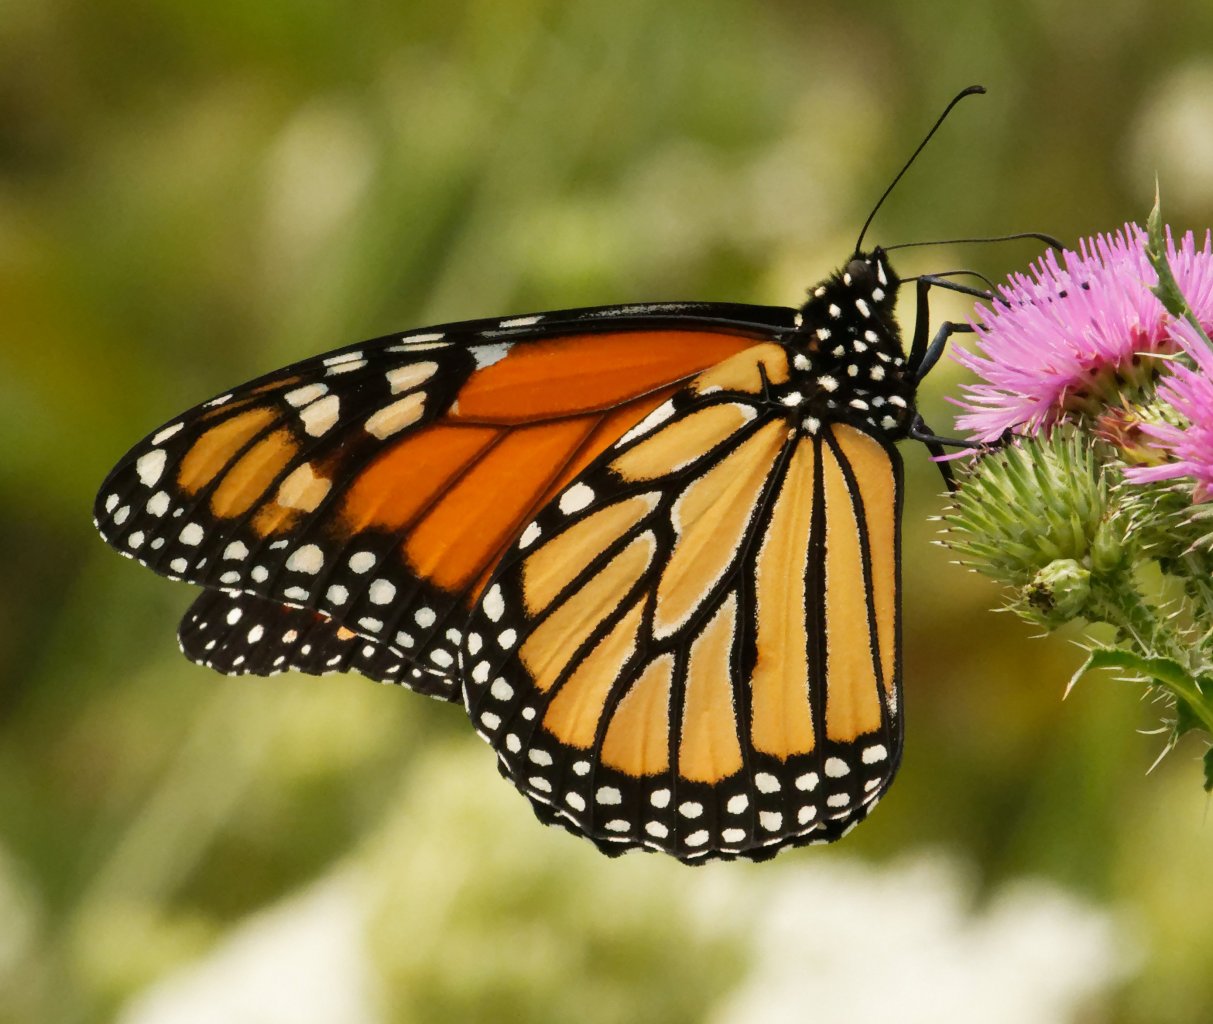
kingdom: Animalia
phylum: Arthropoda
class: Insecta
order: Lepidoptera
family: Nymphalidae
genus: Danaus
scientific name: Danaus plexippus
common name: Monarch
